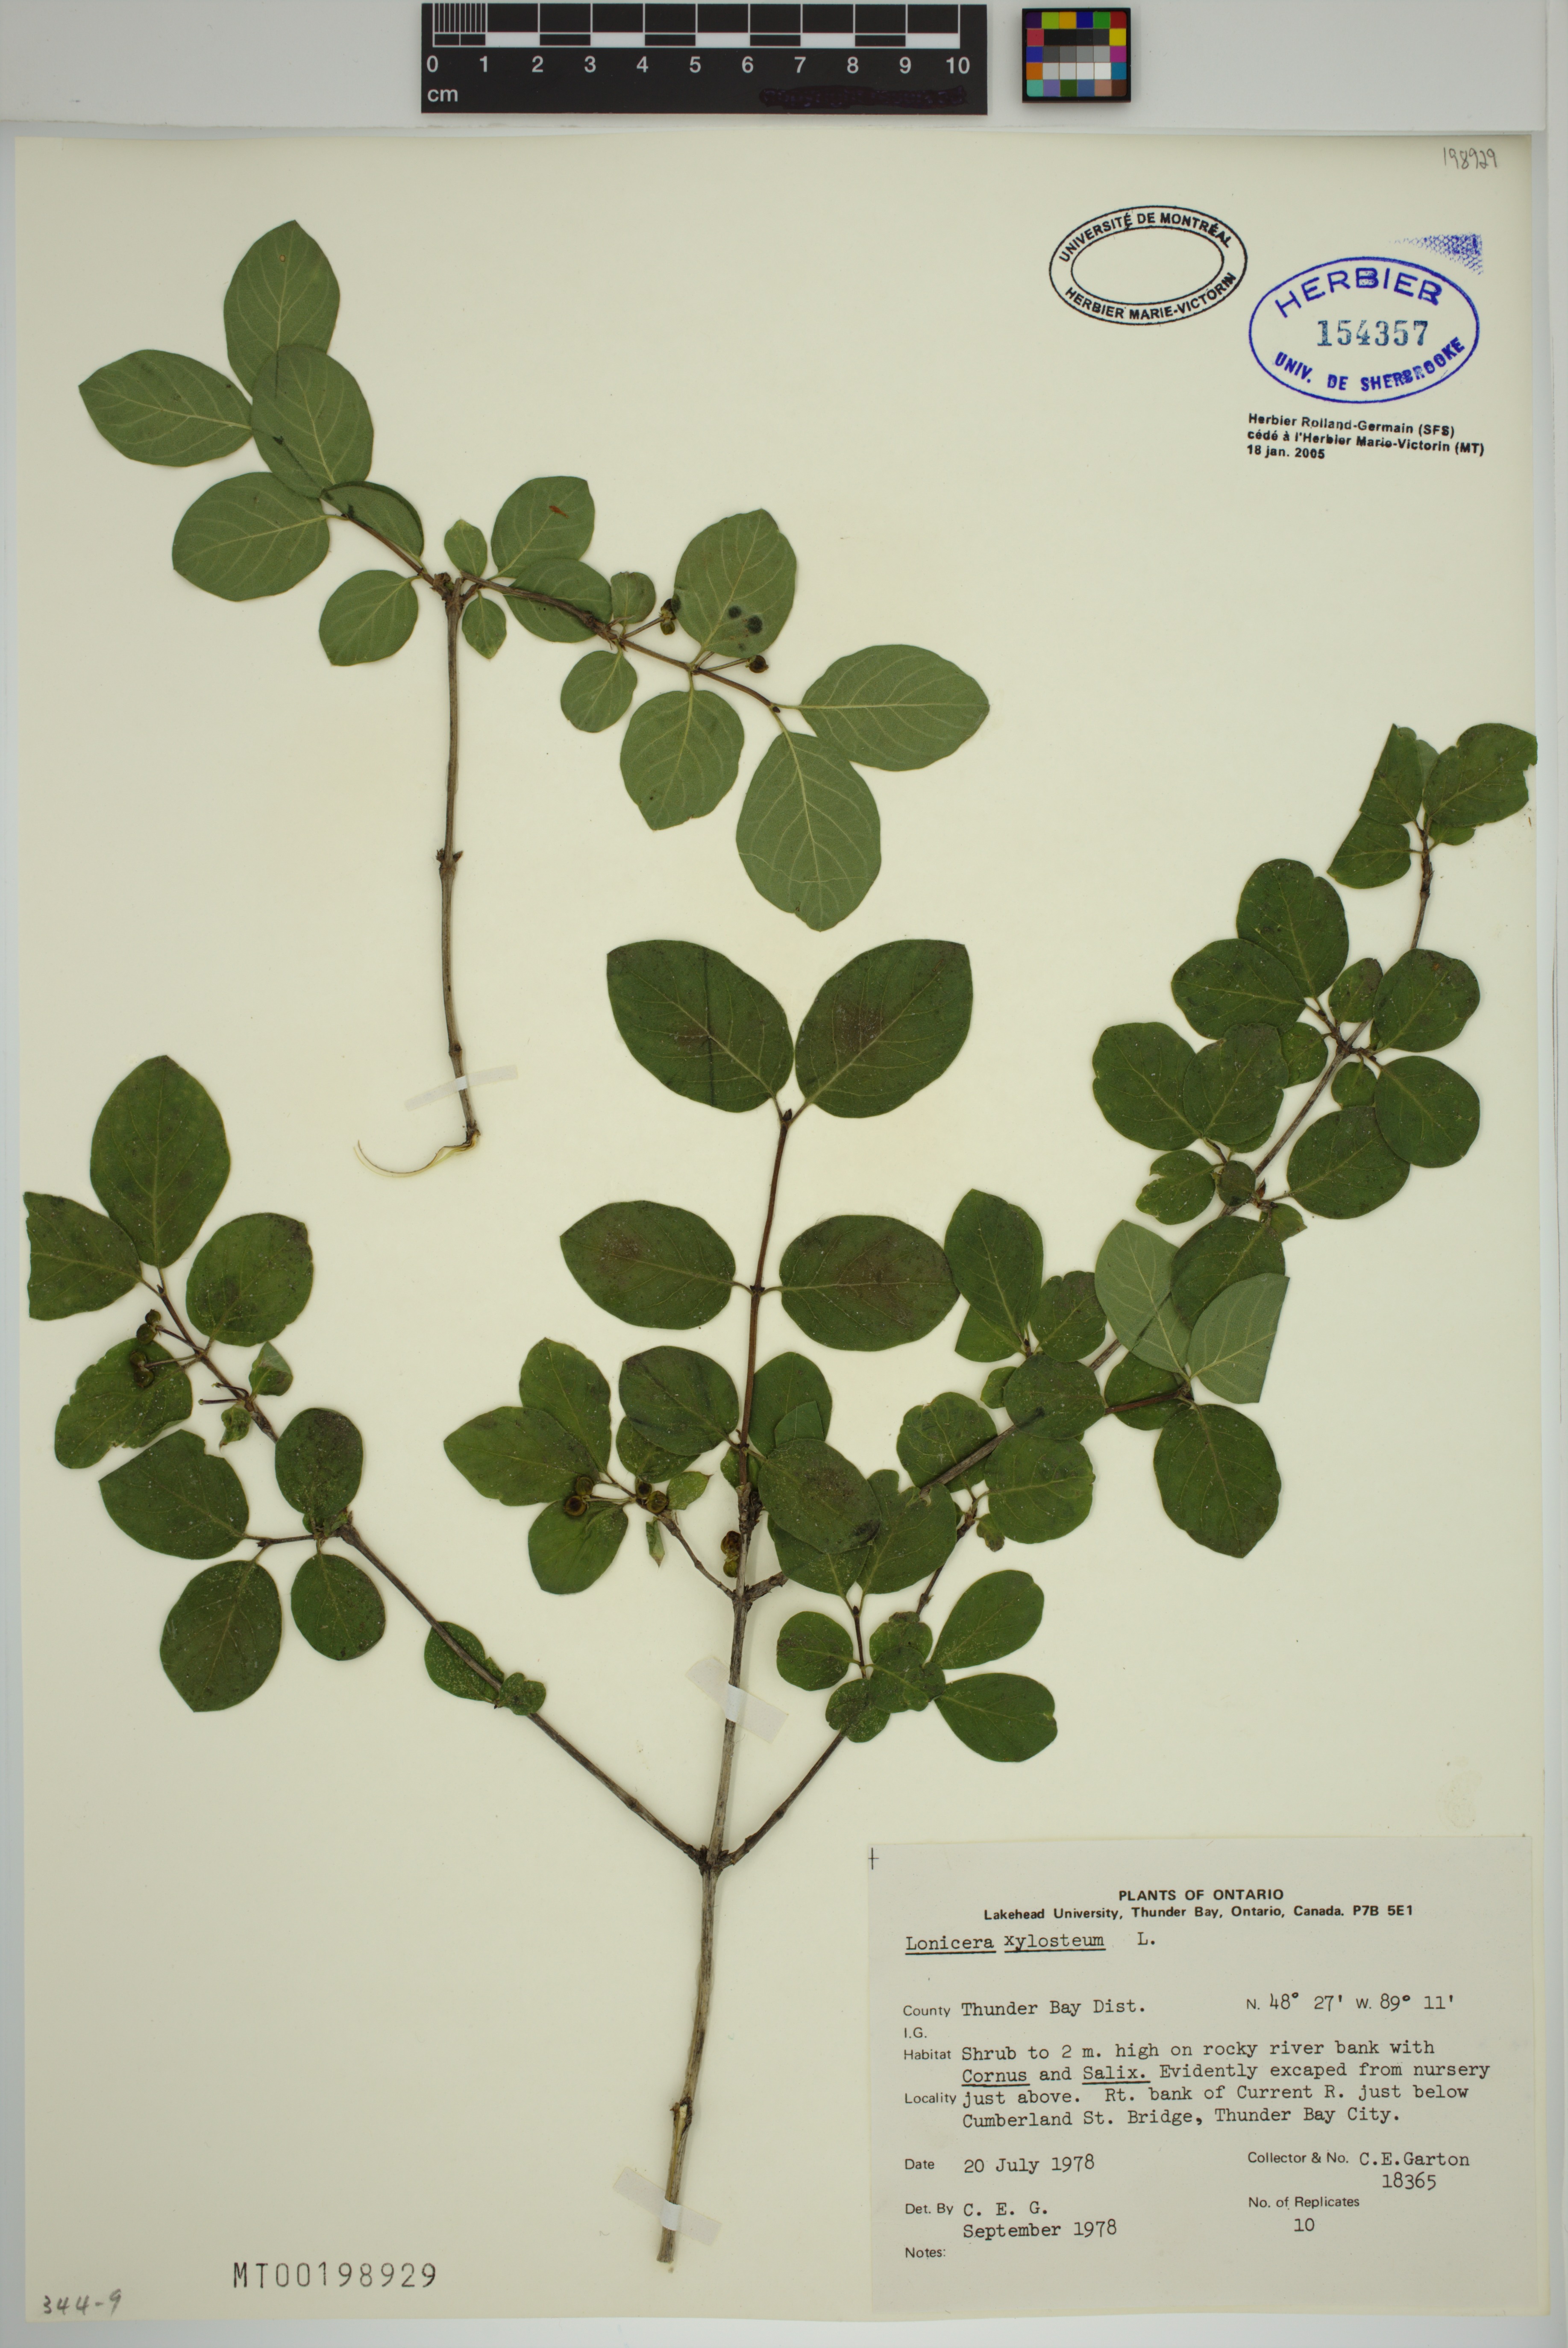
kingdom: Plantae
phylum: Tracheophyta
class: Magnoliopsida
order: Dipsacales
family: Caprifoliaceae
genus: Lonicera
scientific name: Lonicera xylosteum
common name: Fly honeysuckle
